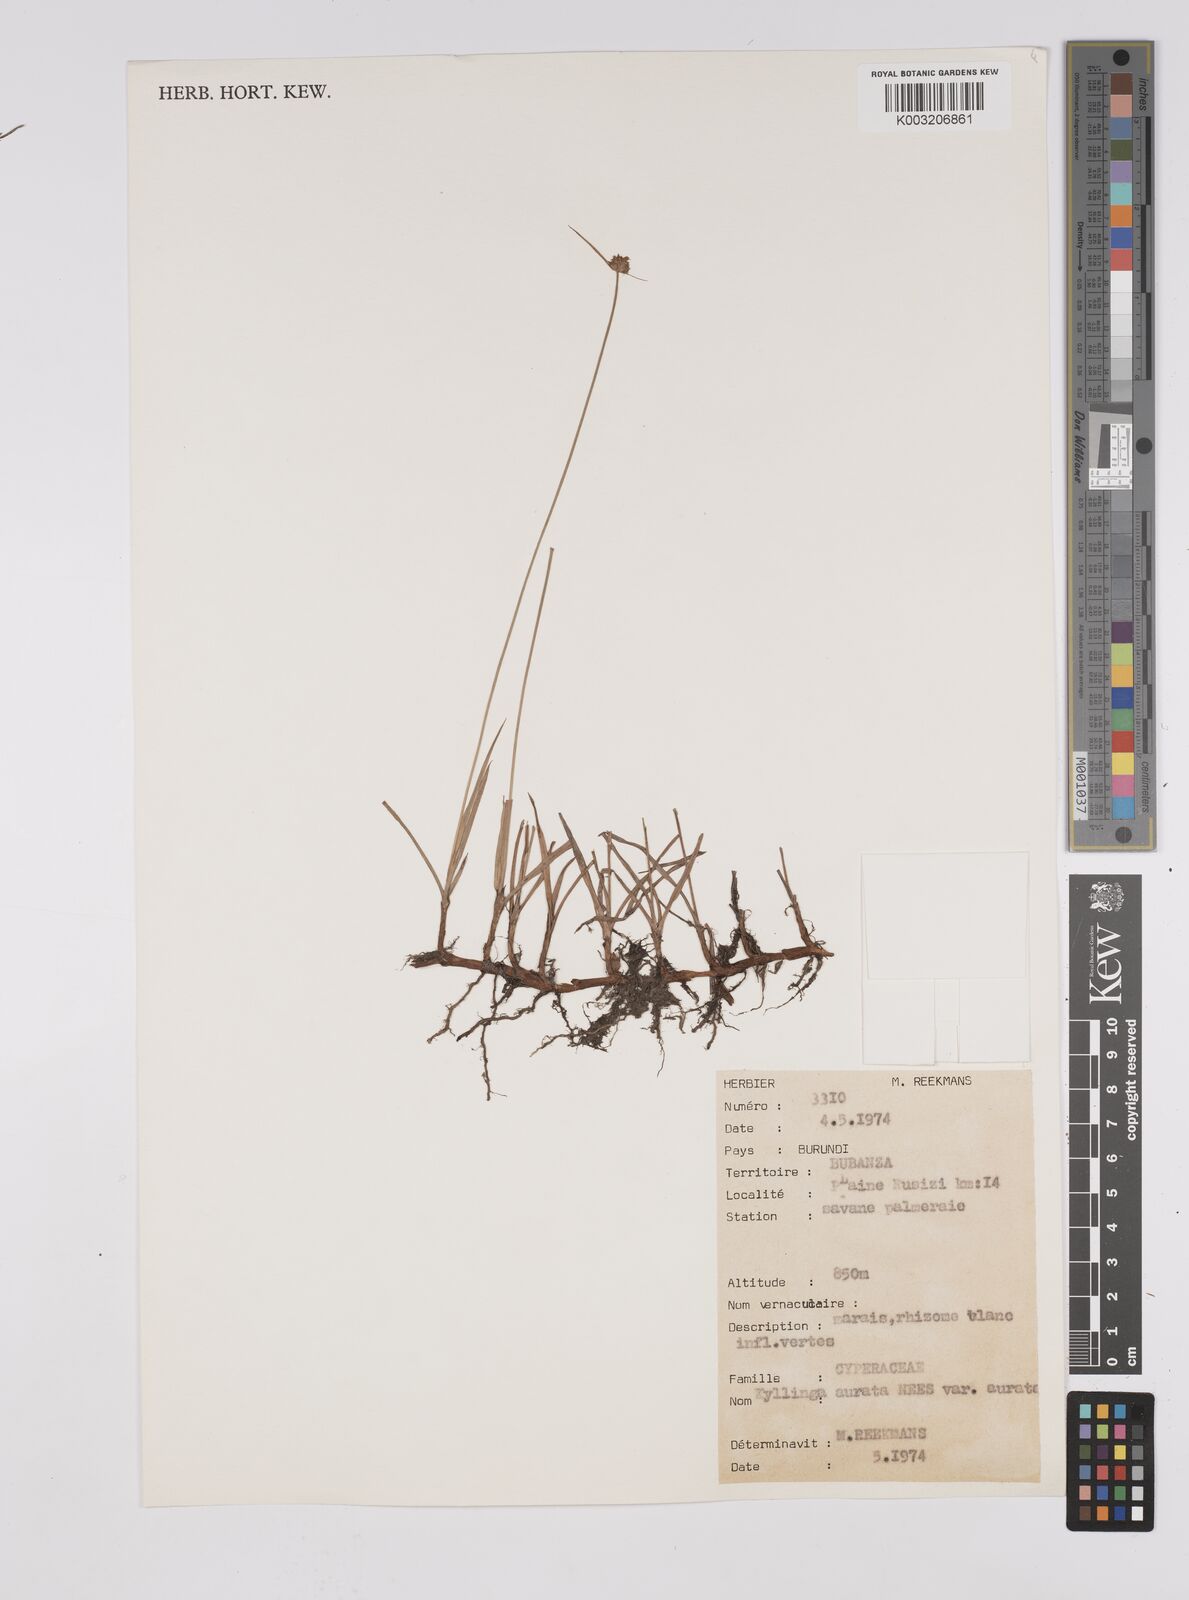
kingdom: Plantae
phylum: Tracheophyta
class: Liliopsida
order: Poales
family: Cyperaceae
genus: Cyperus
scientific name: Cyperus erectus
